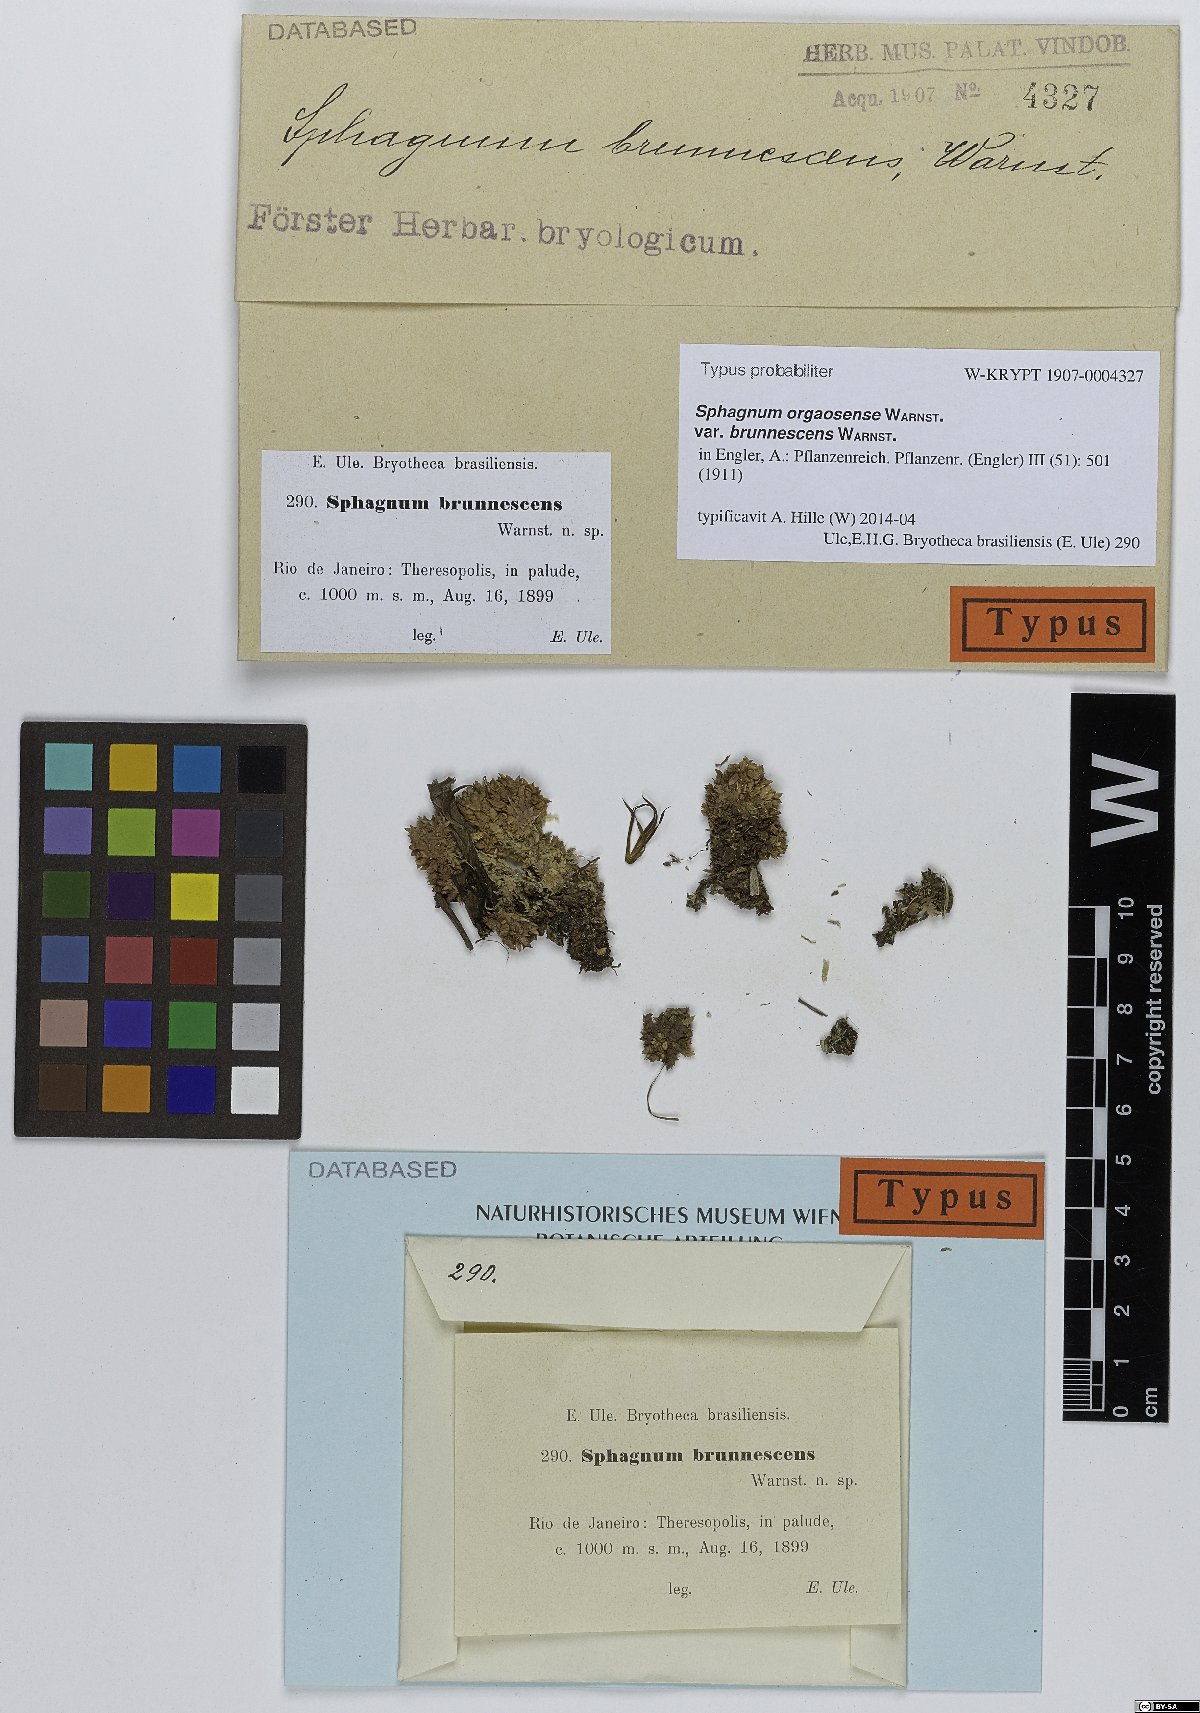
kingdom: Plantae
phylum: Bryophyta
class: Sphagnopsida
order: Sphagnales
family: Sphagnaceae
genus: Sphagnum
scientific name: Sphagnum perichaetiale
